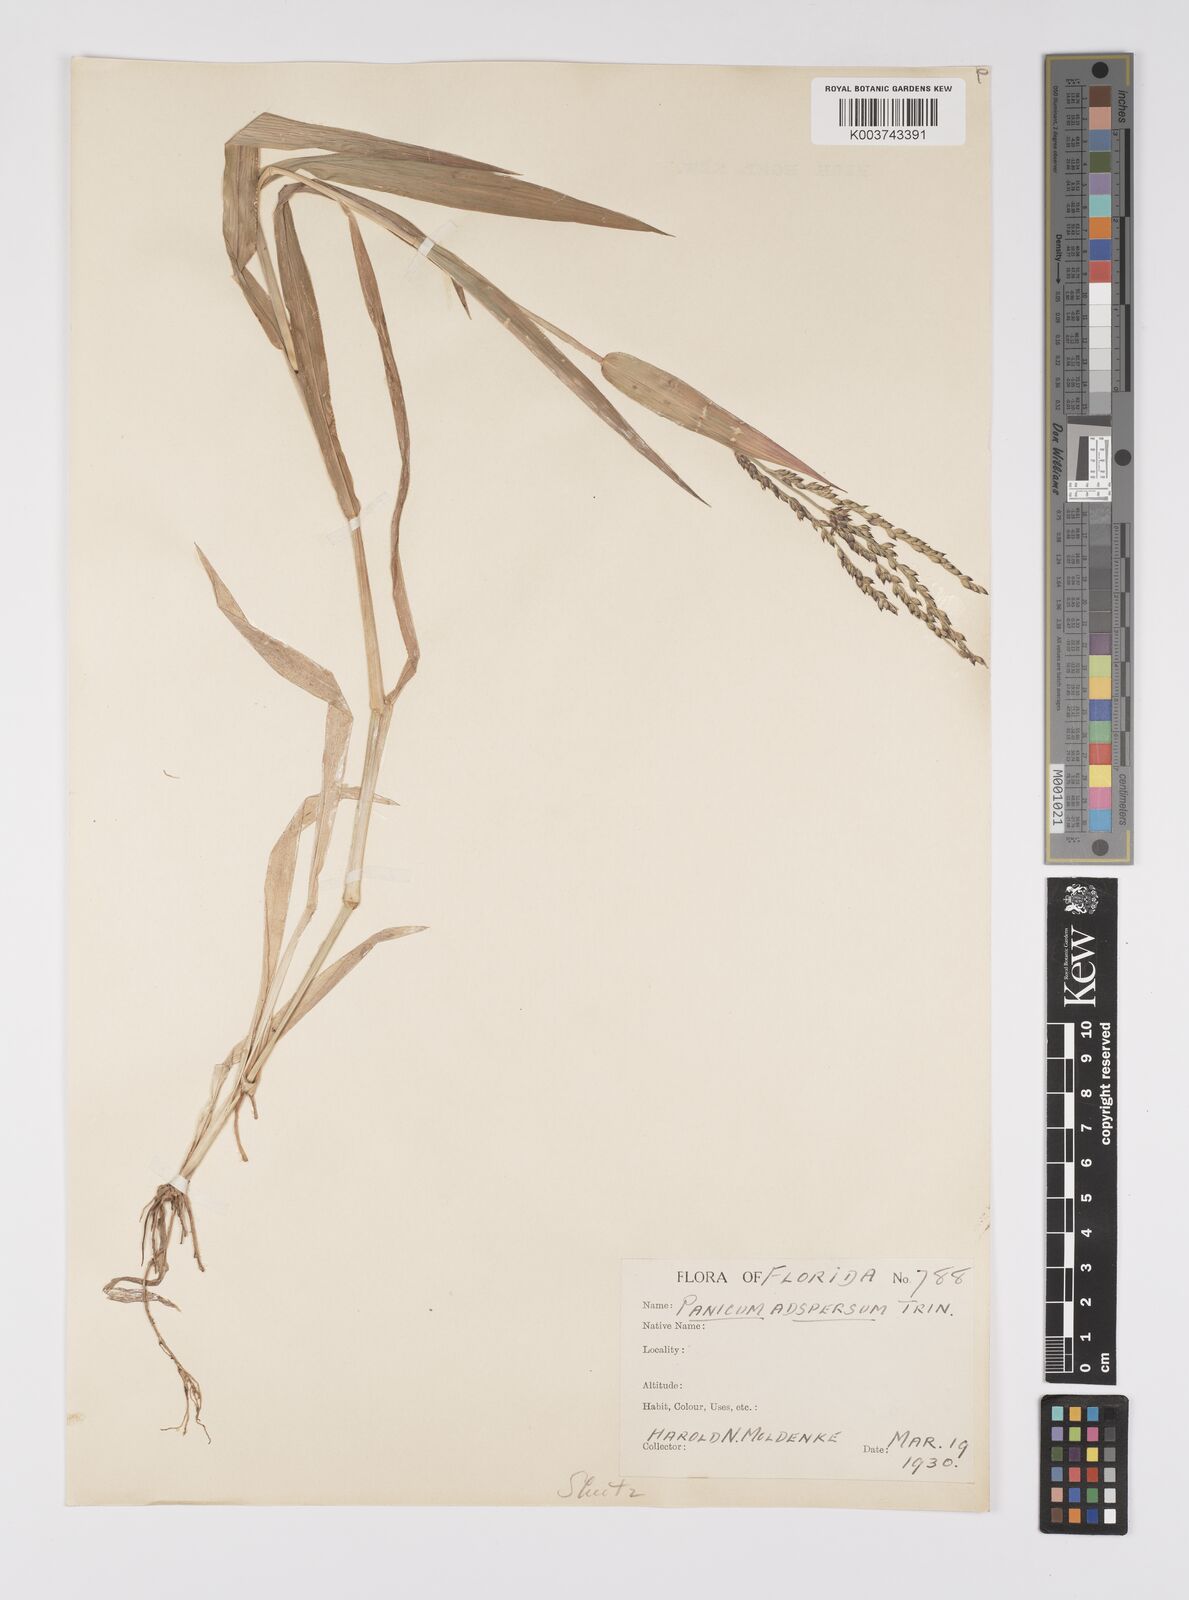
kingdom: Plantae
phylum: Tracheophyta
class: Liliopsida
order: Poales
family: Poaceae
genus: Urochloa
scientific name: Urochloa adspersa
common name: Dominican signal grass
